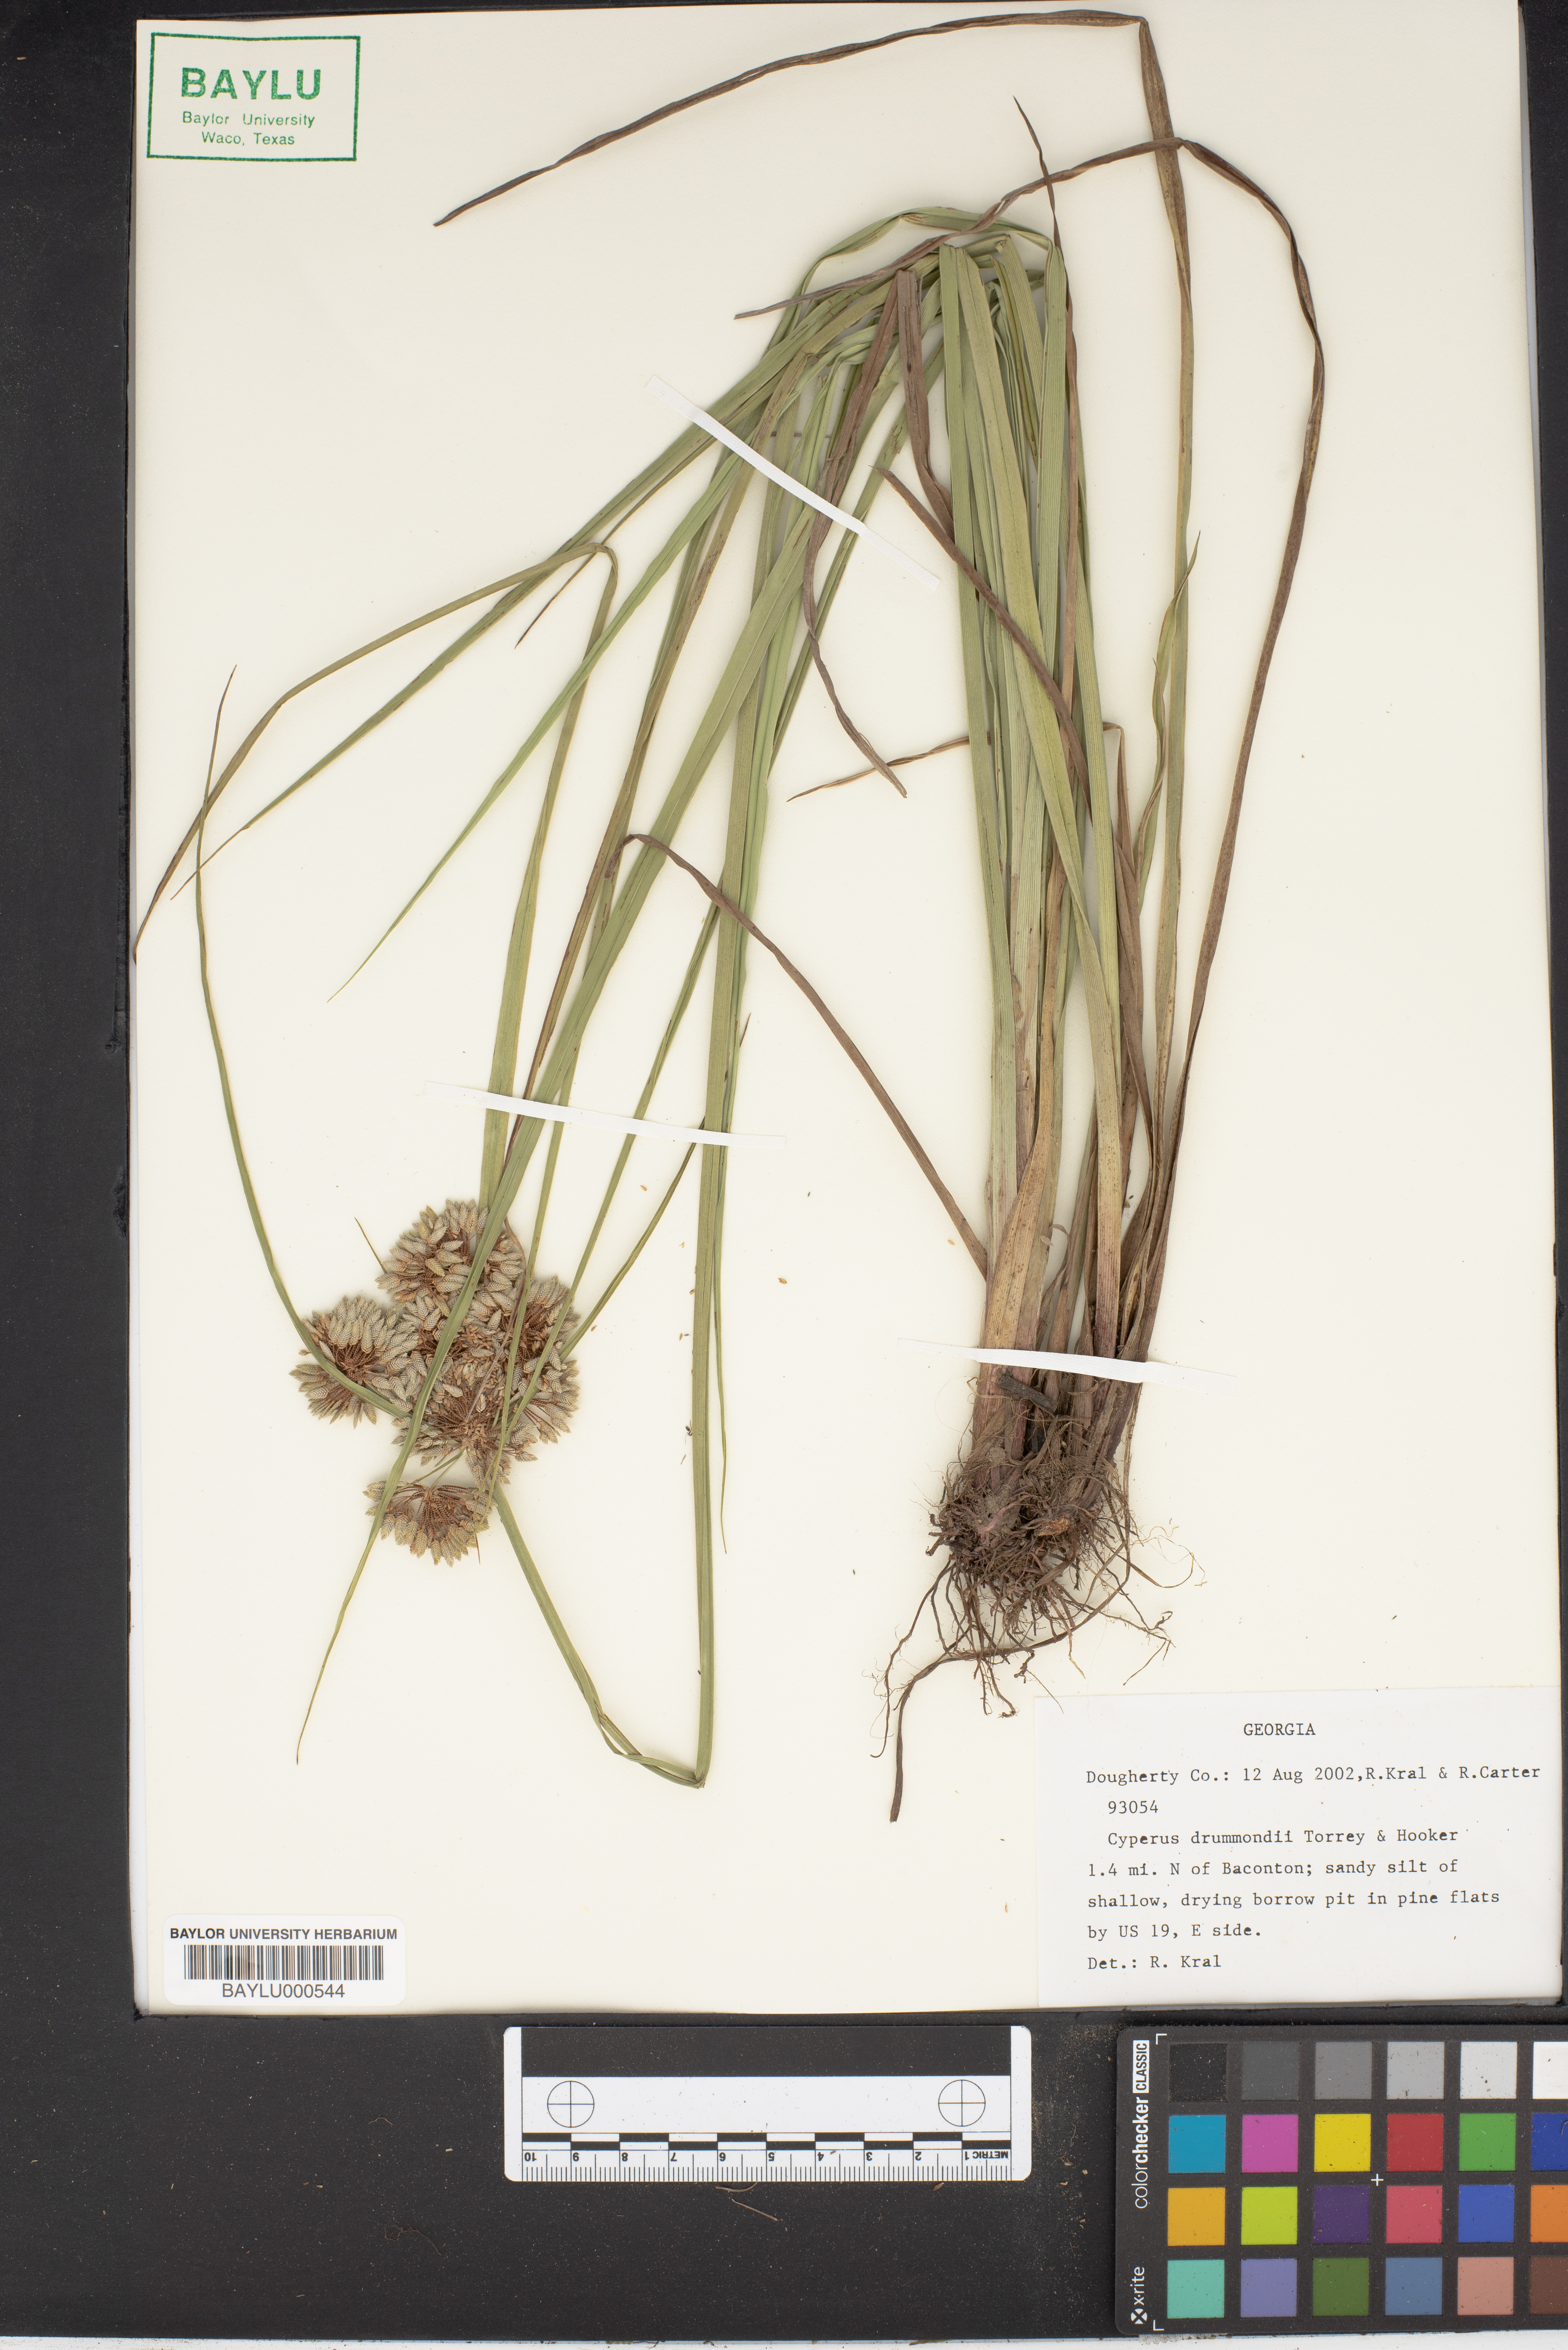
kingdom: Plantae
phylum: Tracheophyta
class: Liliopsida
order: Poales
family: Cyperaceae
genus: Cyperus
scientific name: Cyperus drummondii
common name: Green flat sedge
